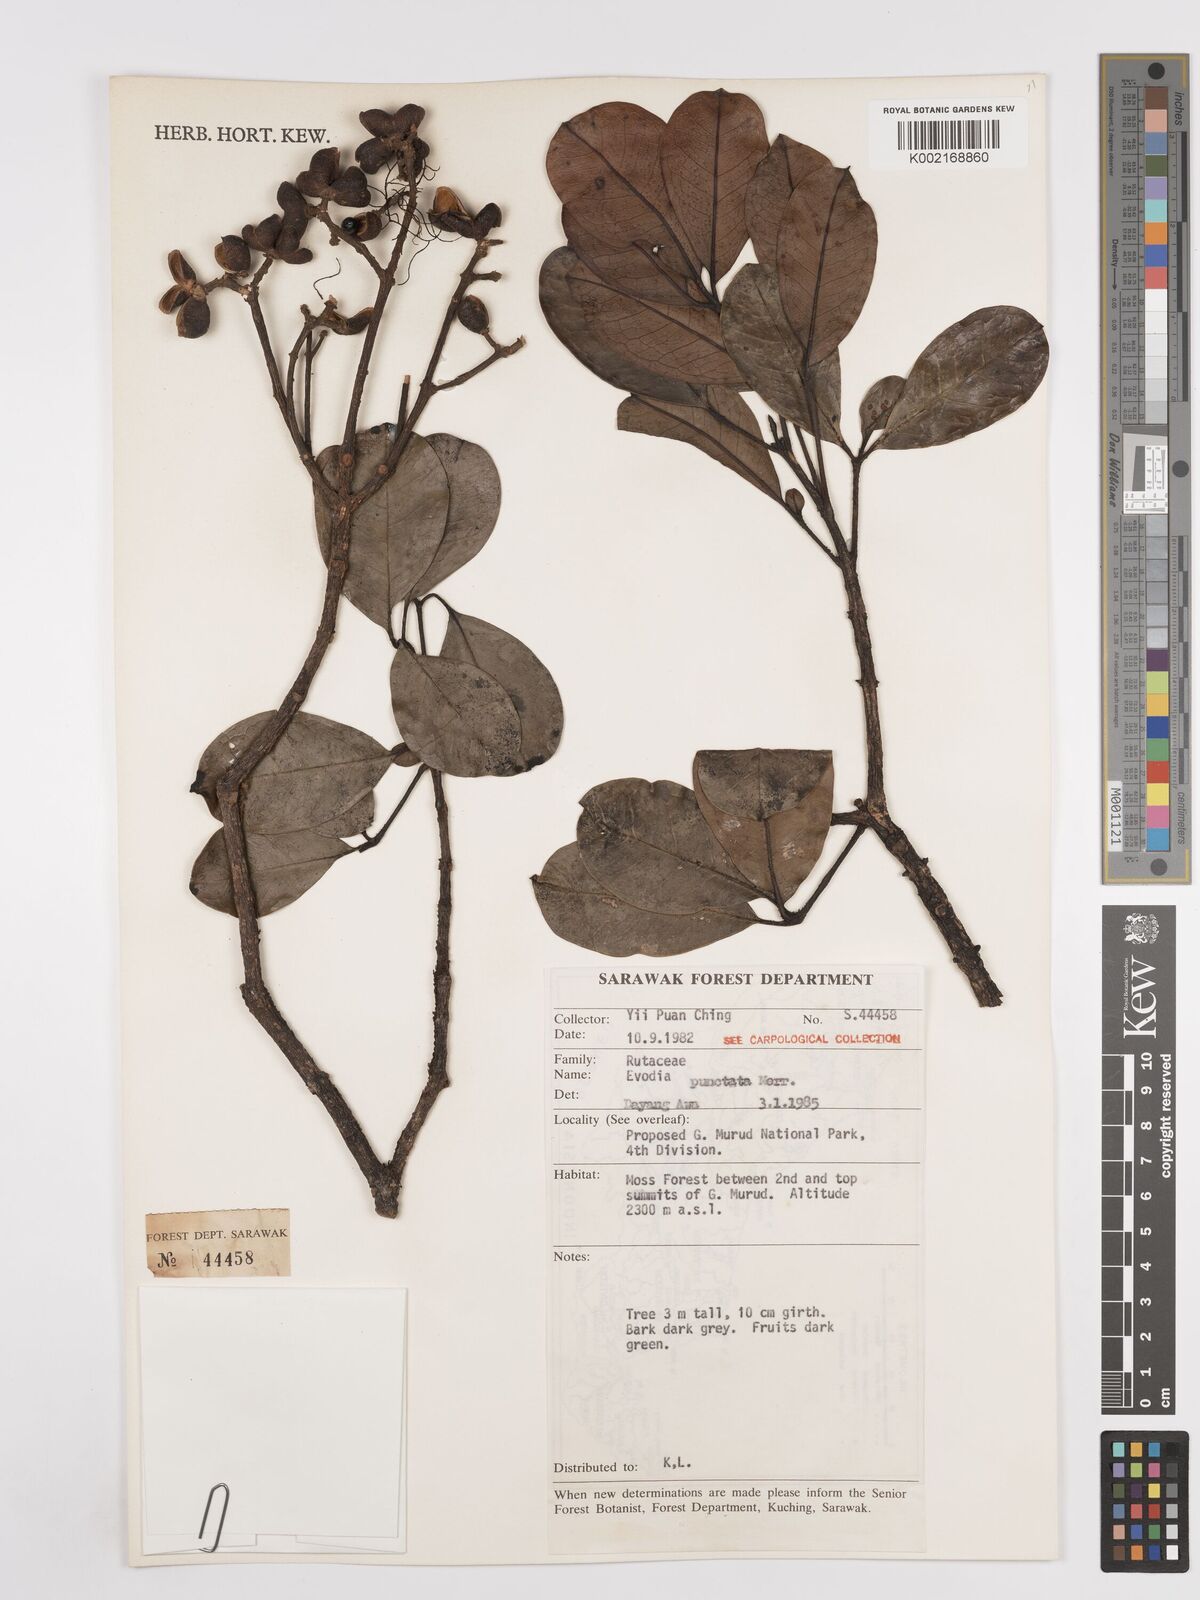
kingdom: Plantae
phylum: Tracheophyta
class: Magnoliopsida
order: Sapindales
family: Rutaceae
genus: Melicope
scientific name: Melicope lunu-ankenda
